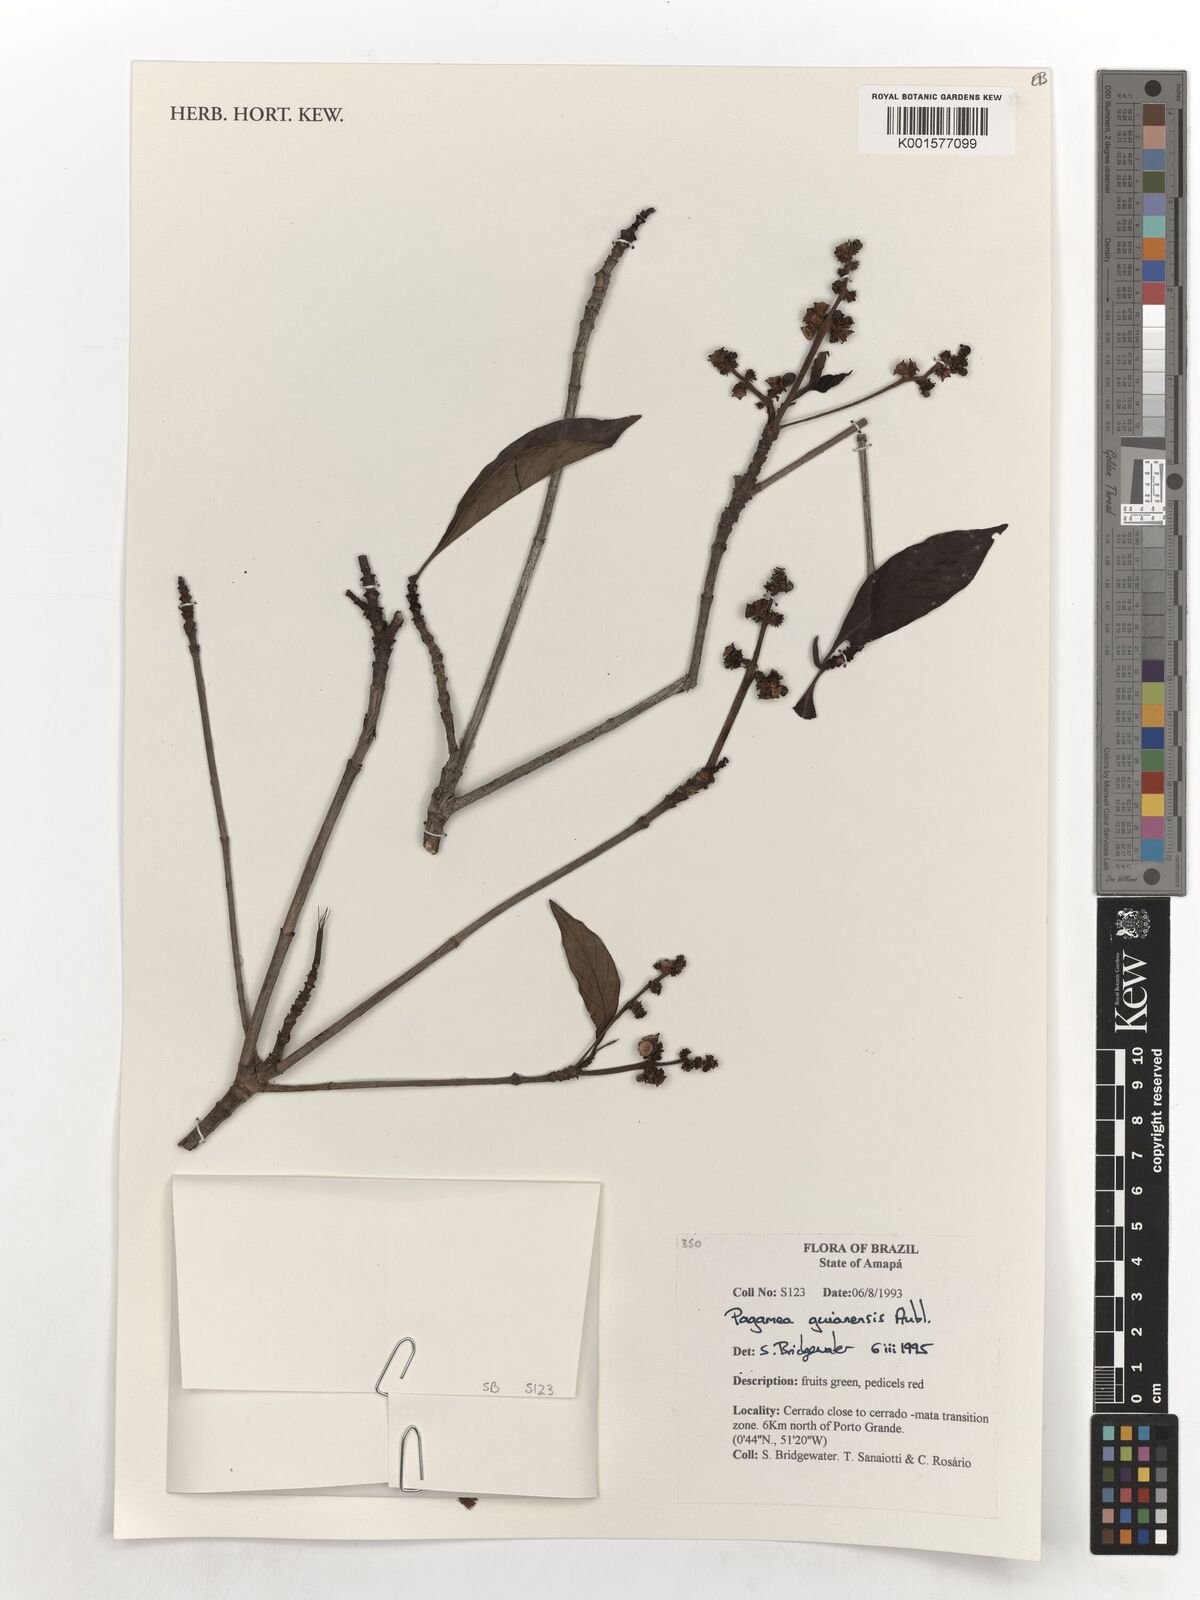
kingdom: Plantae
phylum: Tracheophyta
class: Magnoliopsida
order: Gentianales
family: Rubiaceae
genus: Pagamea
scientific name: Pagamea guianensis
